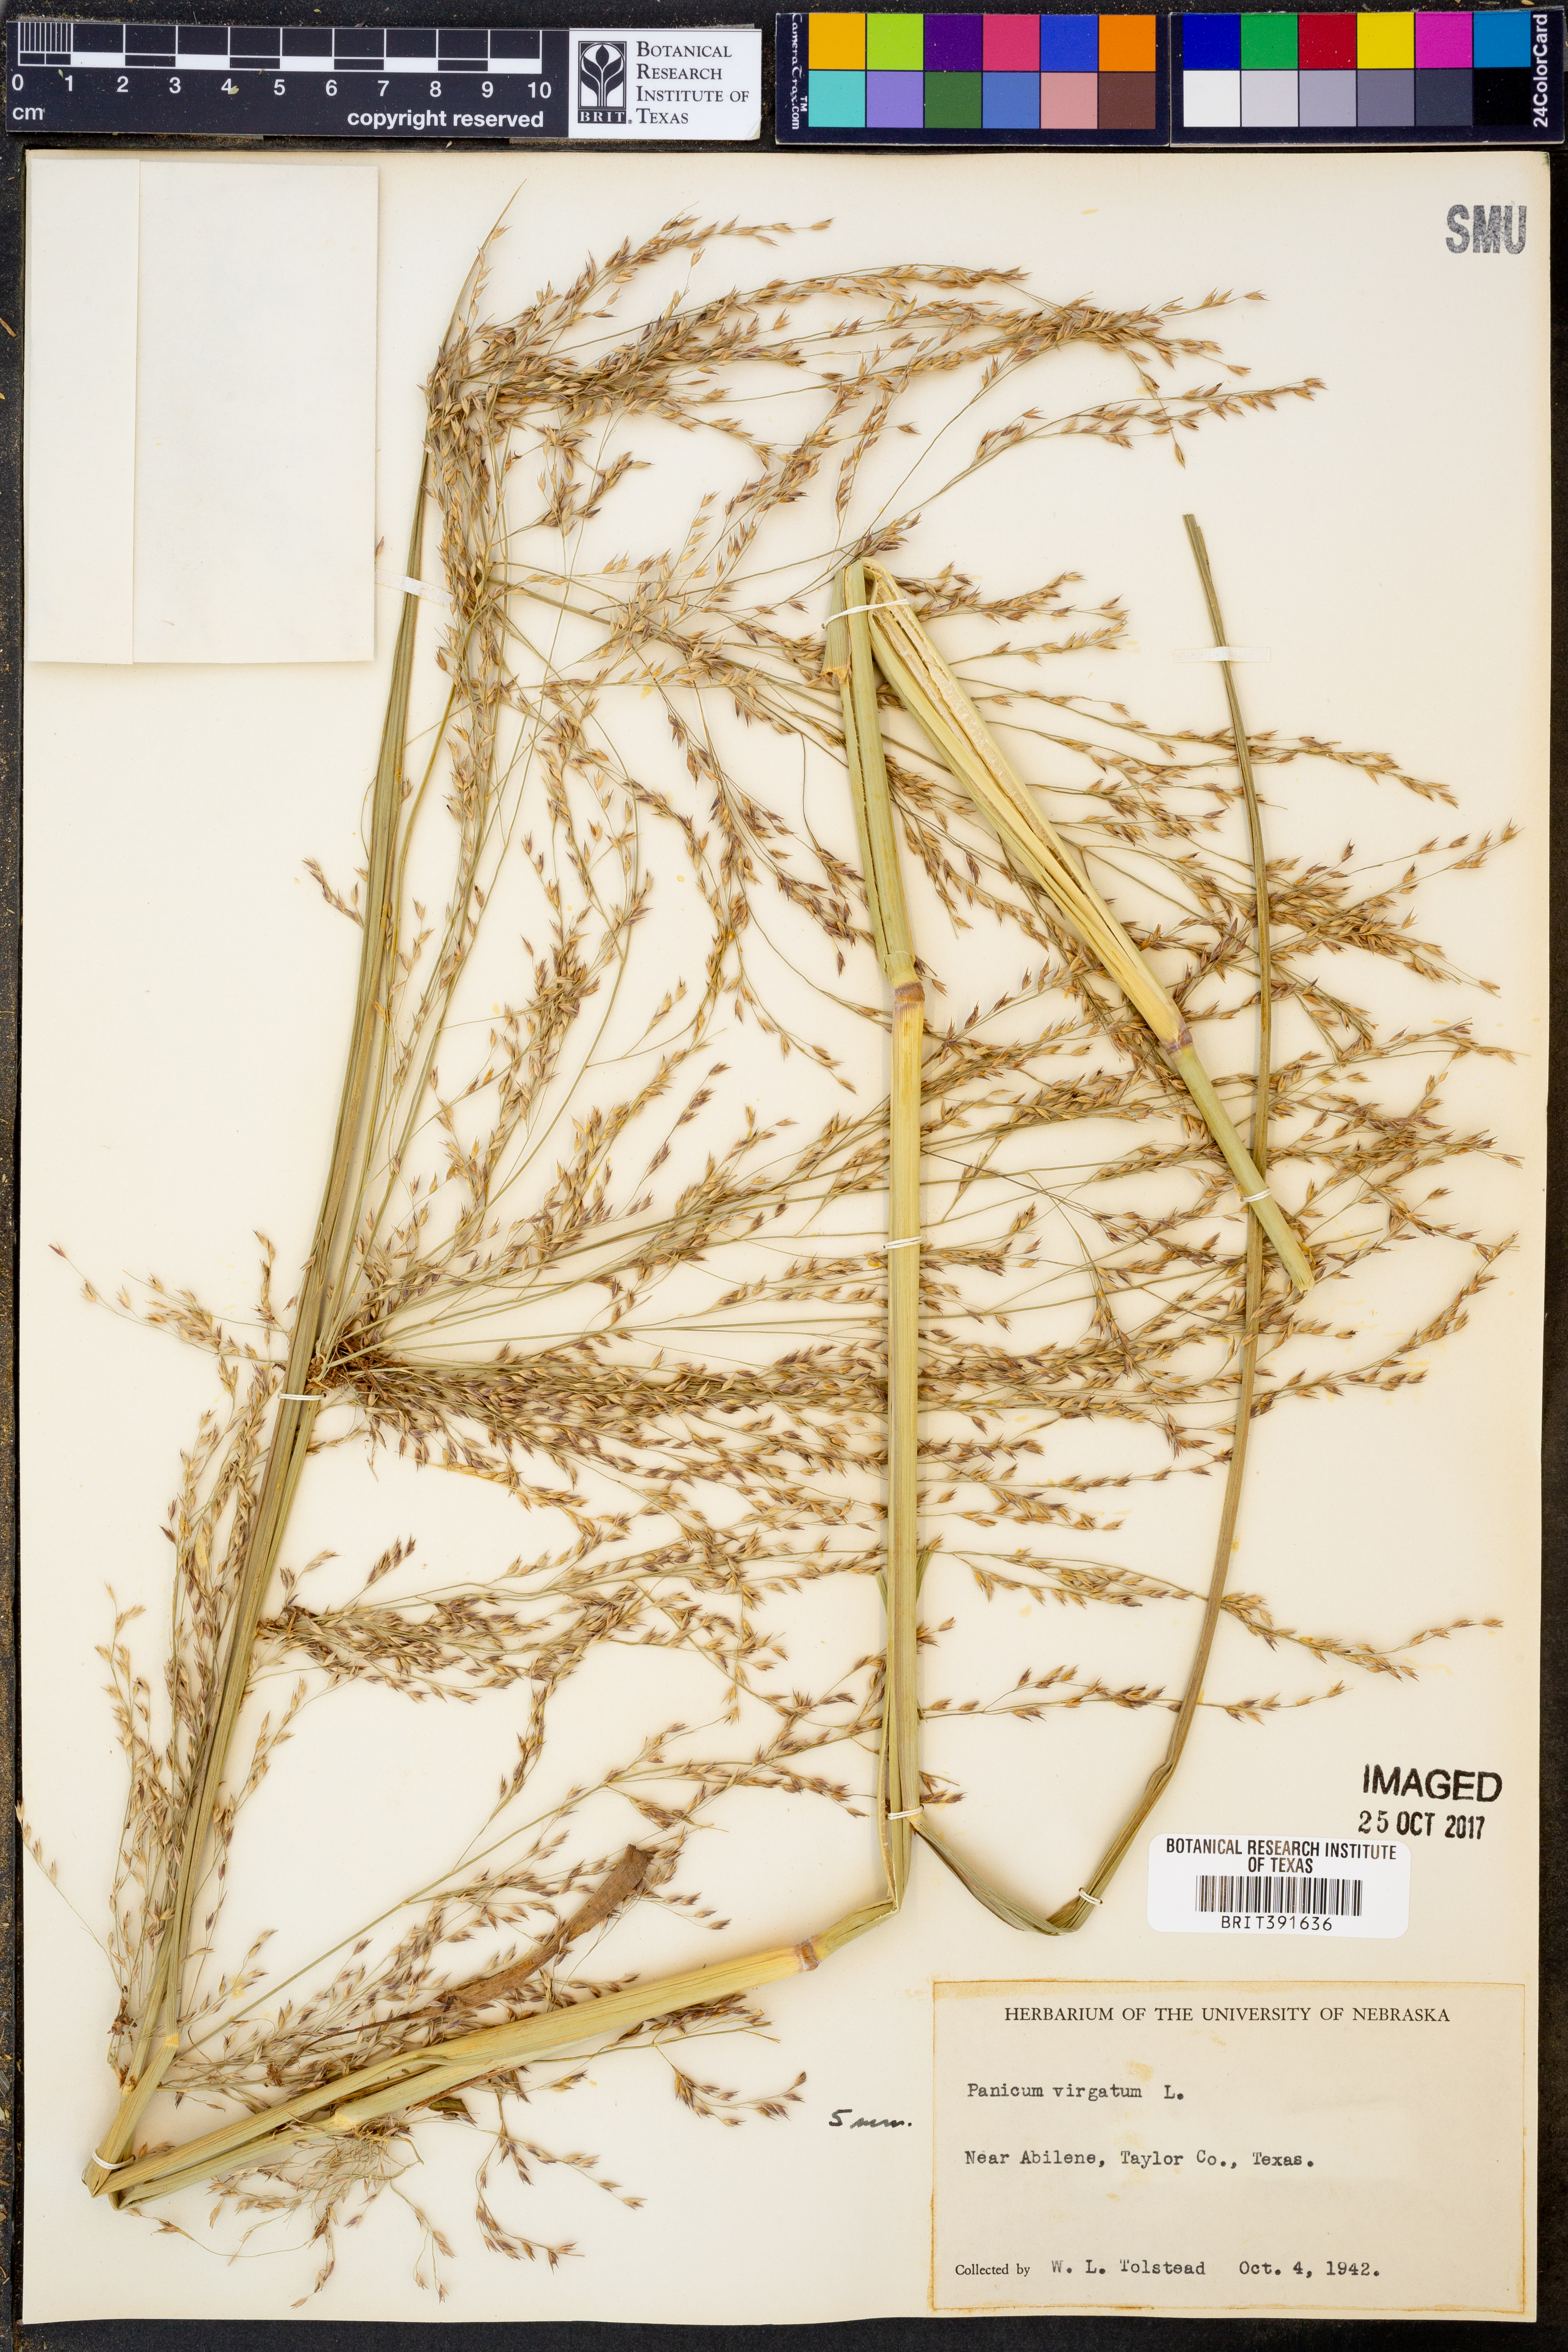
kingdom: Plantae
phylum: Tracheophyta
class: Liliopsida
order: Poales
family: Poaceae
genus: Panicum
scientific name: Panicum virgatum
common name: Switchgrass
